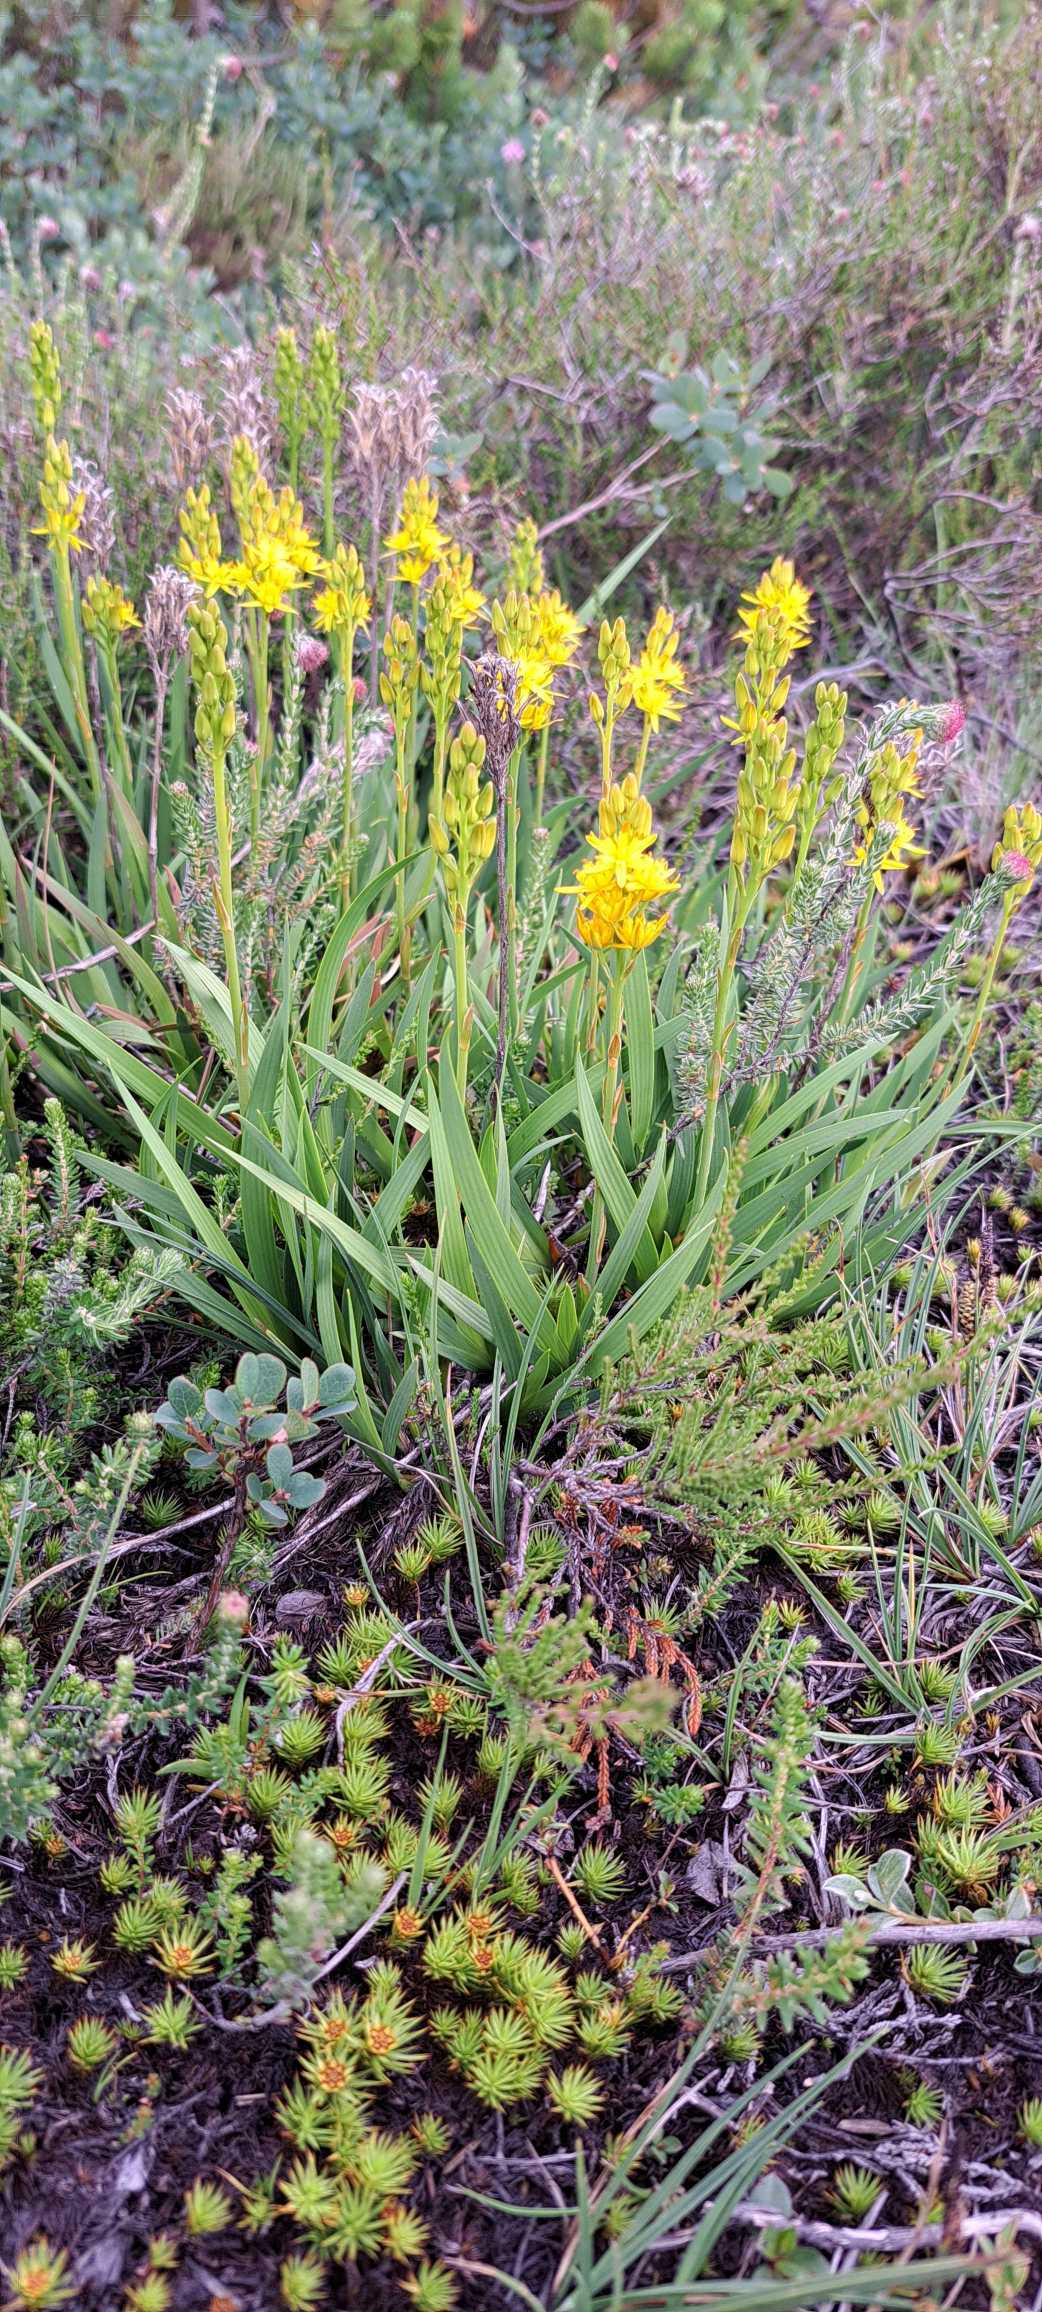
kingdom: Plantae
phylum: Tracheophyta
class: Liliopsida
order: Dioscoreales
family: Nartheciaceae
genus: Narthecium
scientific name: Narthecium ossifragum
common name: Benbræk
